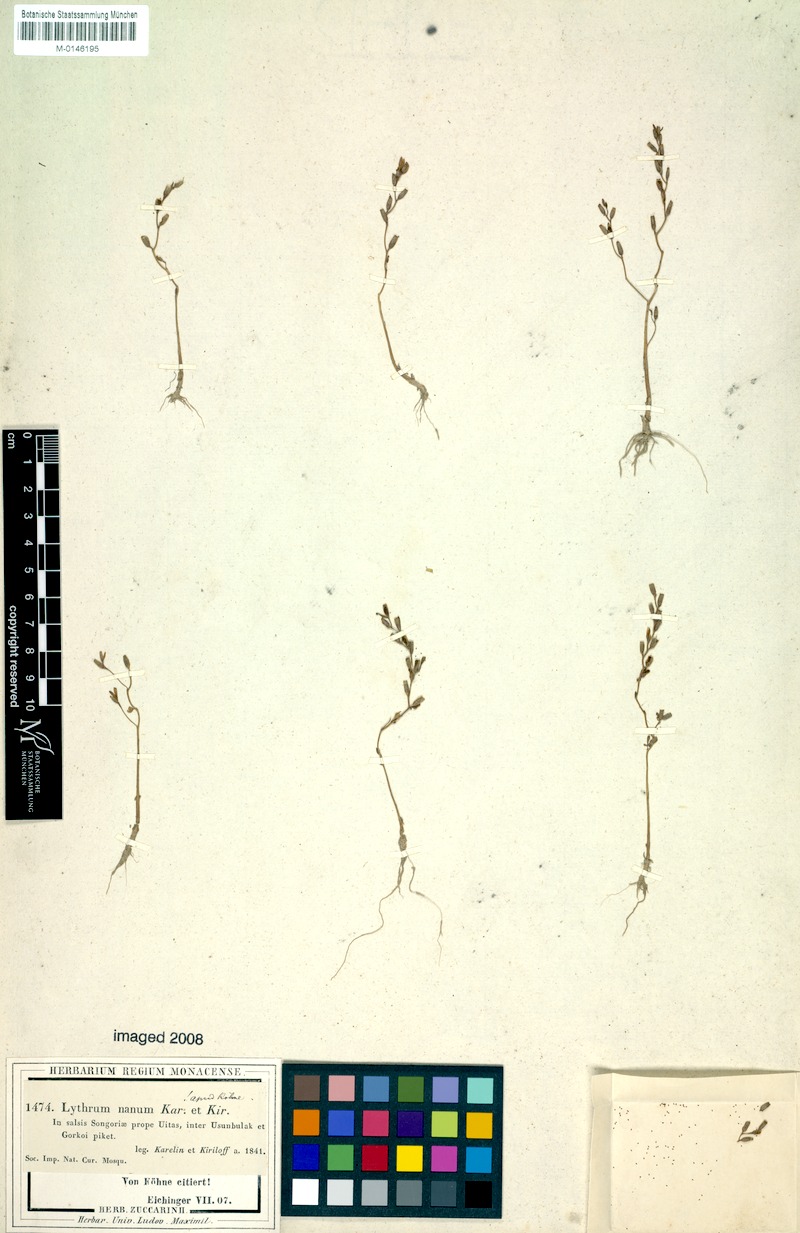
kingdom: Plantae
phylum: Tracheophyta
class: Magnoliopsida
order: Myrtales
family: Lythraceae
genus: Lythrum
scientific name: Lythrum nanum
